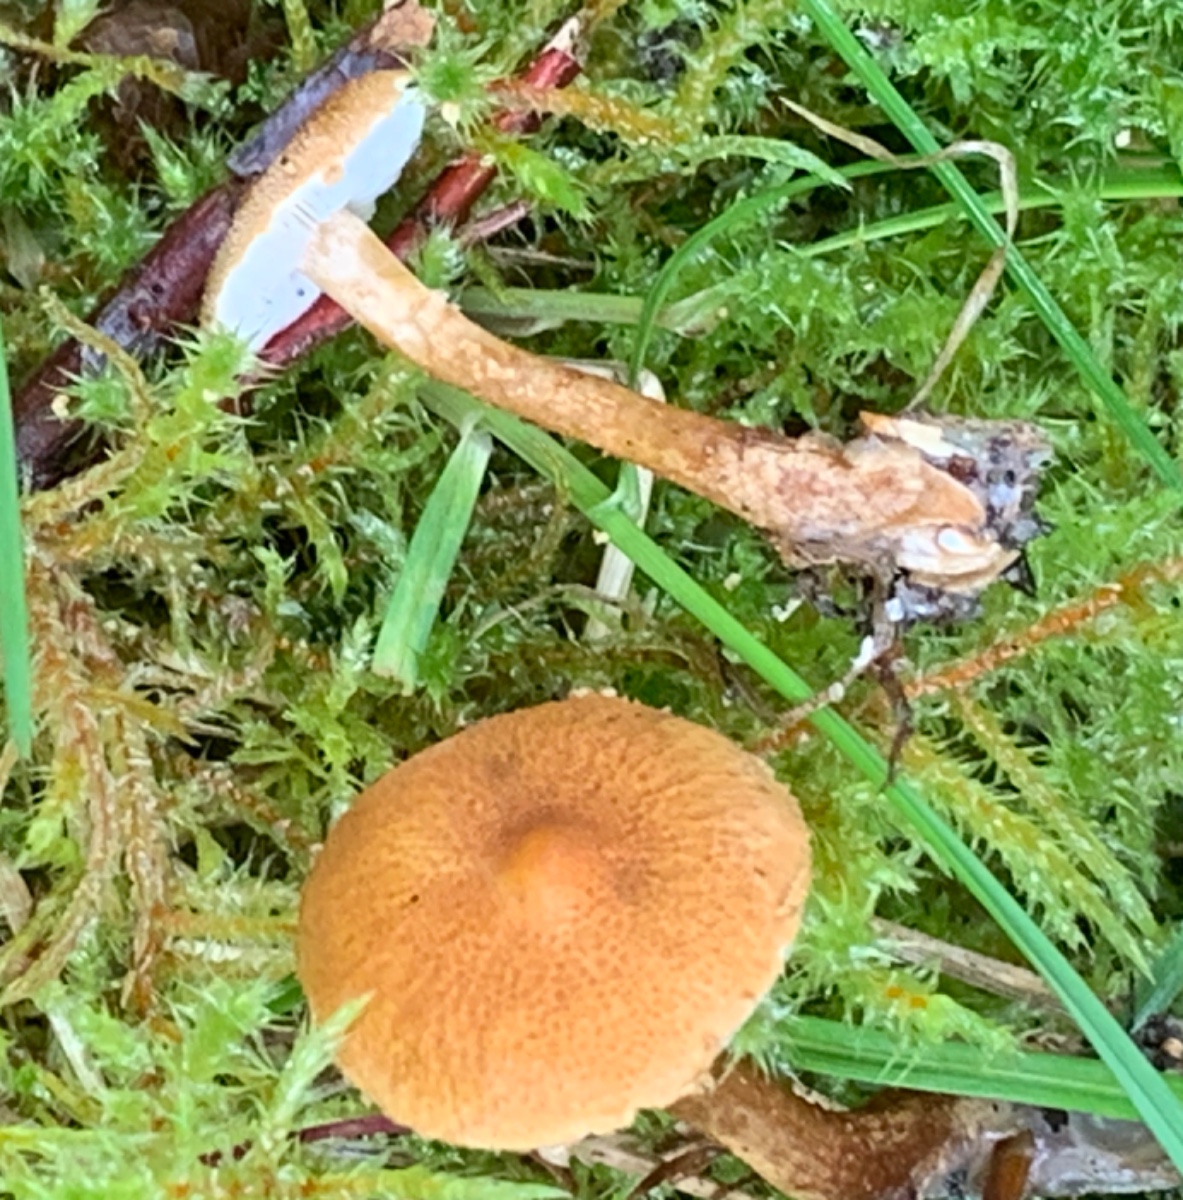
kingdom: Fungi
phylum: Basidiomycota
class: Agaricomycetes
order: Agaricales
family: Tricholomataceae
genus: Cystoderma
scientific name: Cystoderma amianthinum
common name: okkergul grynhat
